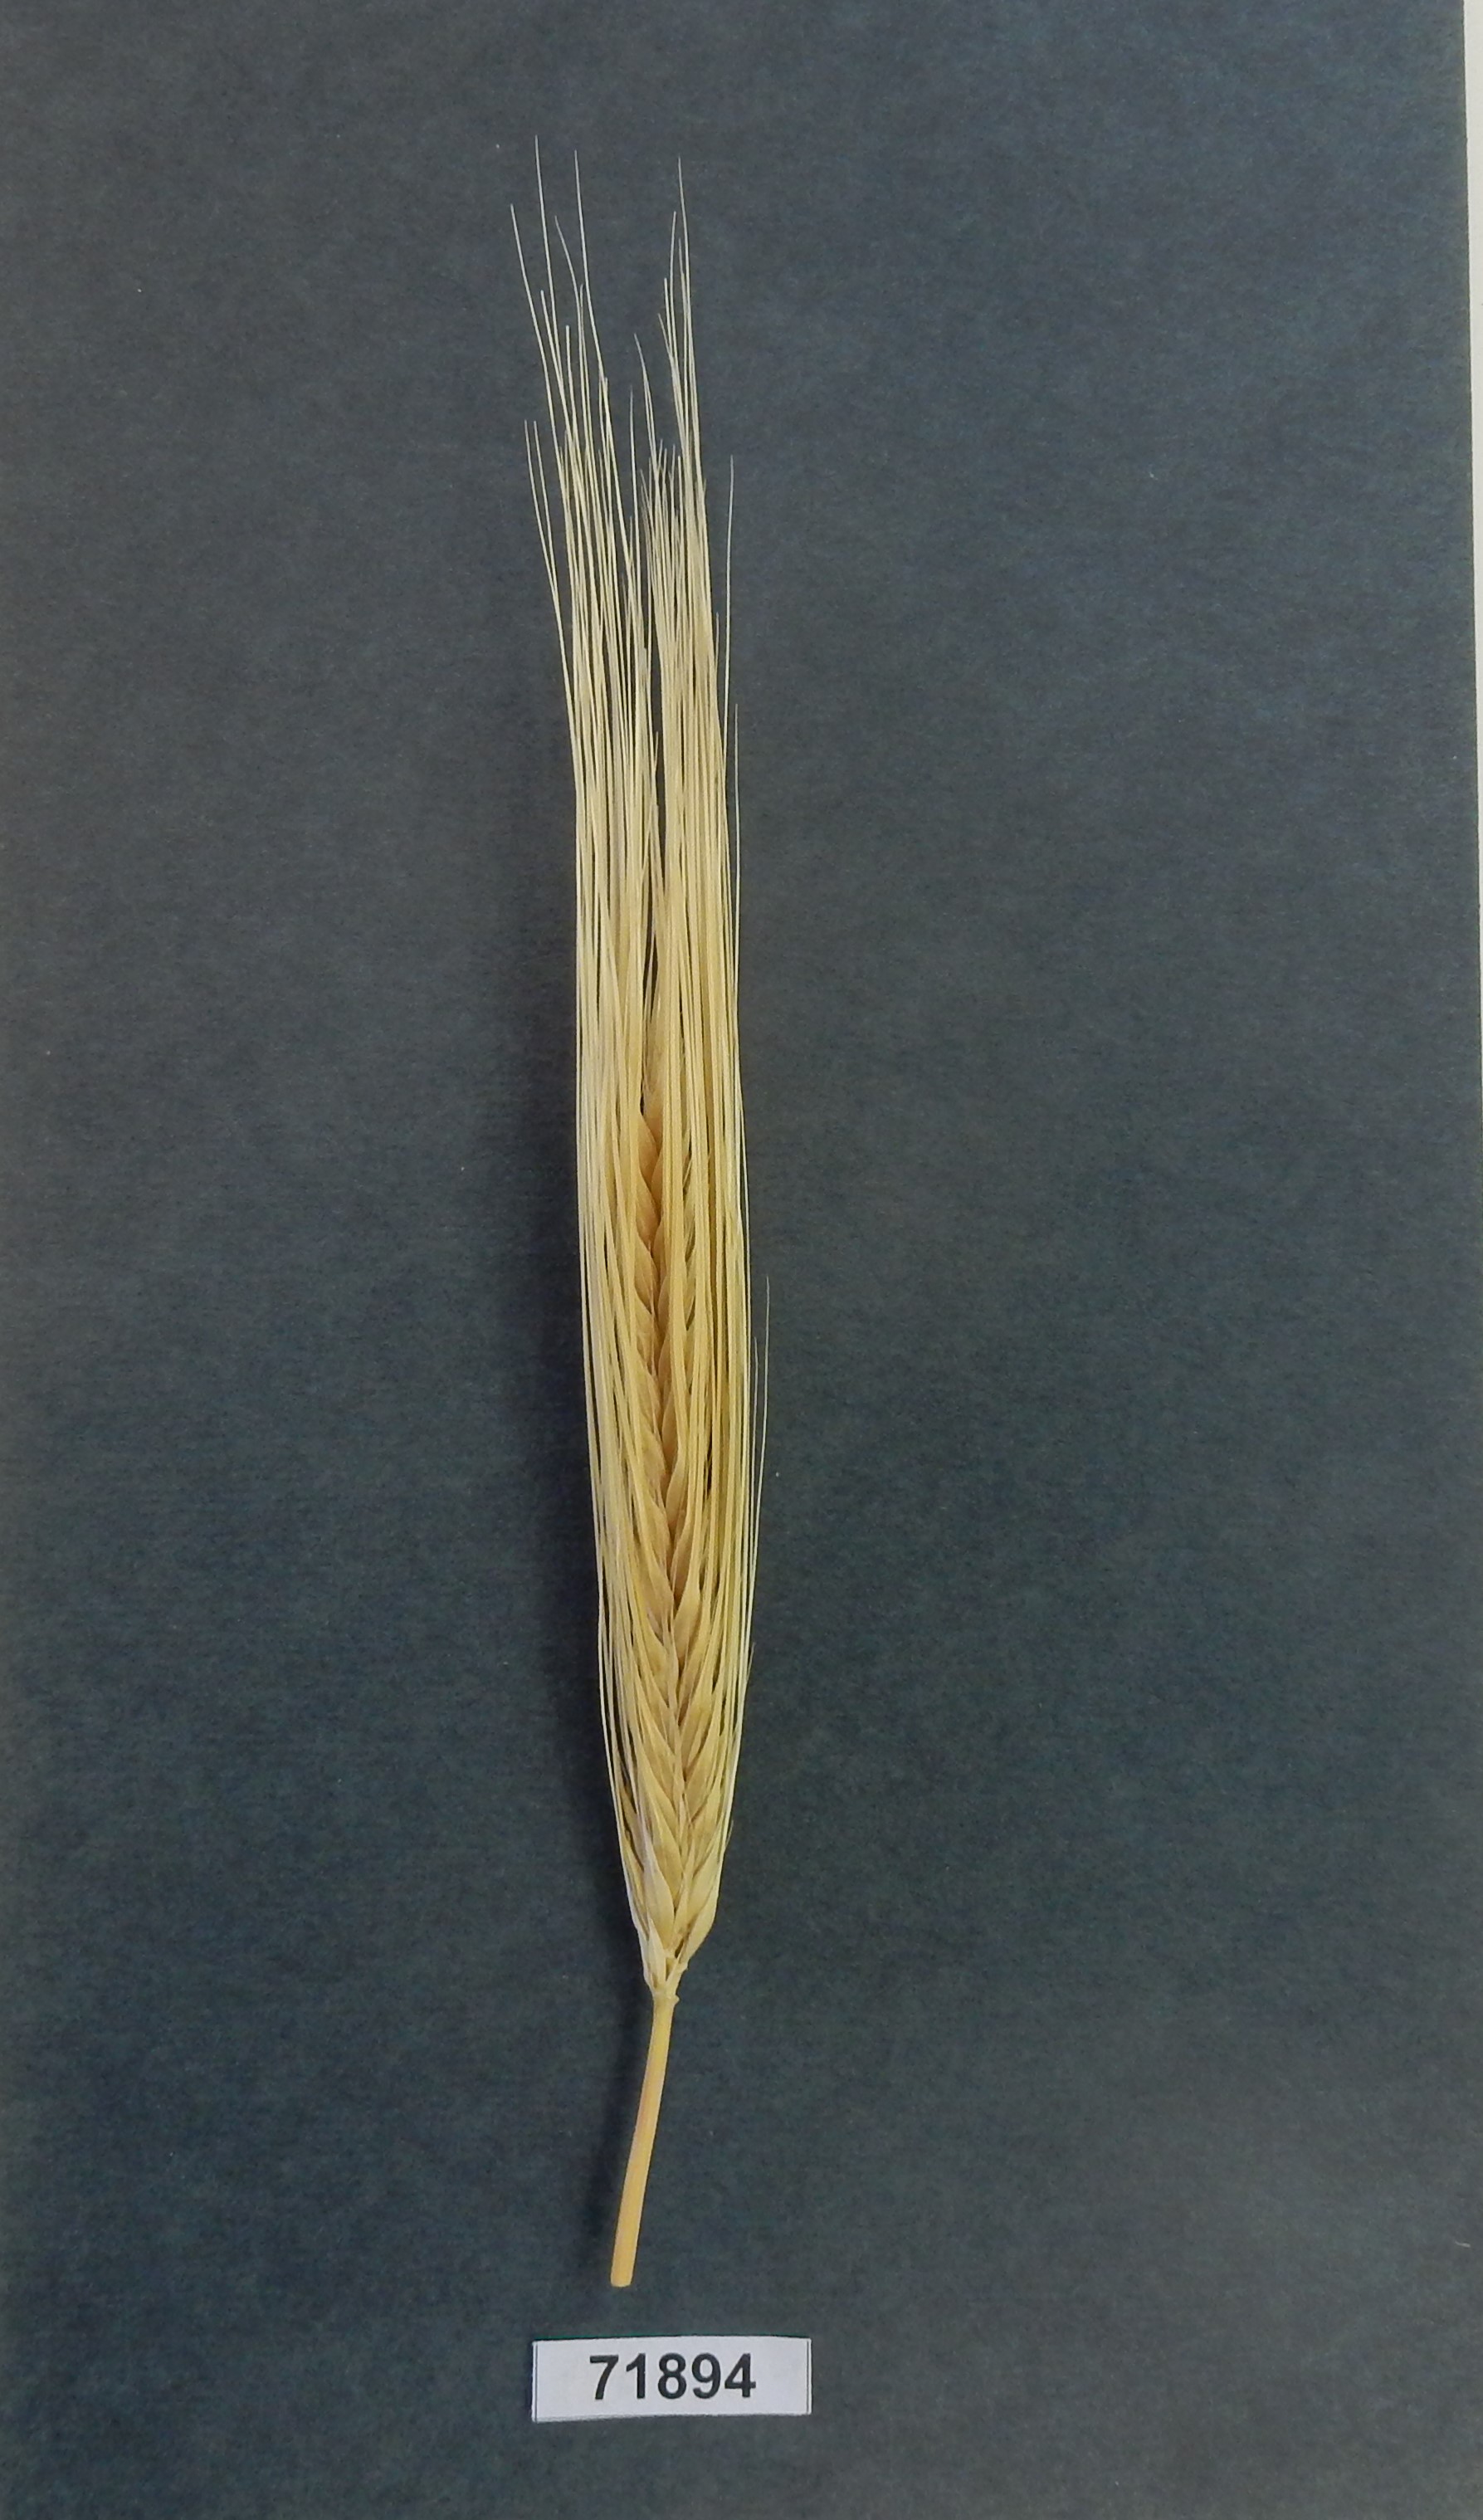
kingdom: Plantae
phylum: Tracheophyta
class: Liliopsida
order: Poales
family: Poaceae
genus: Hordeum
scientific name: Hordeum
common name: Barley
